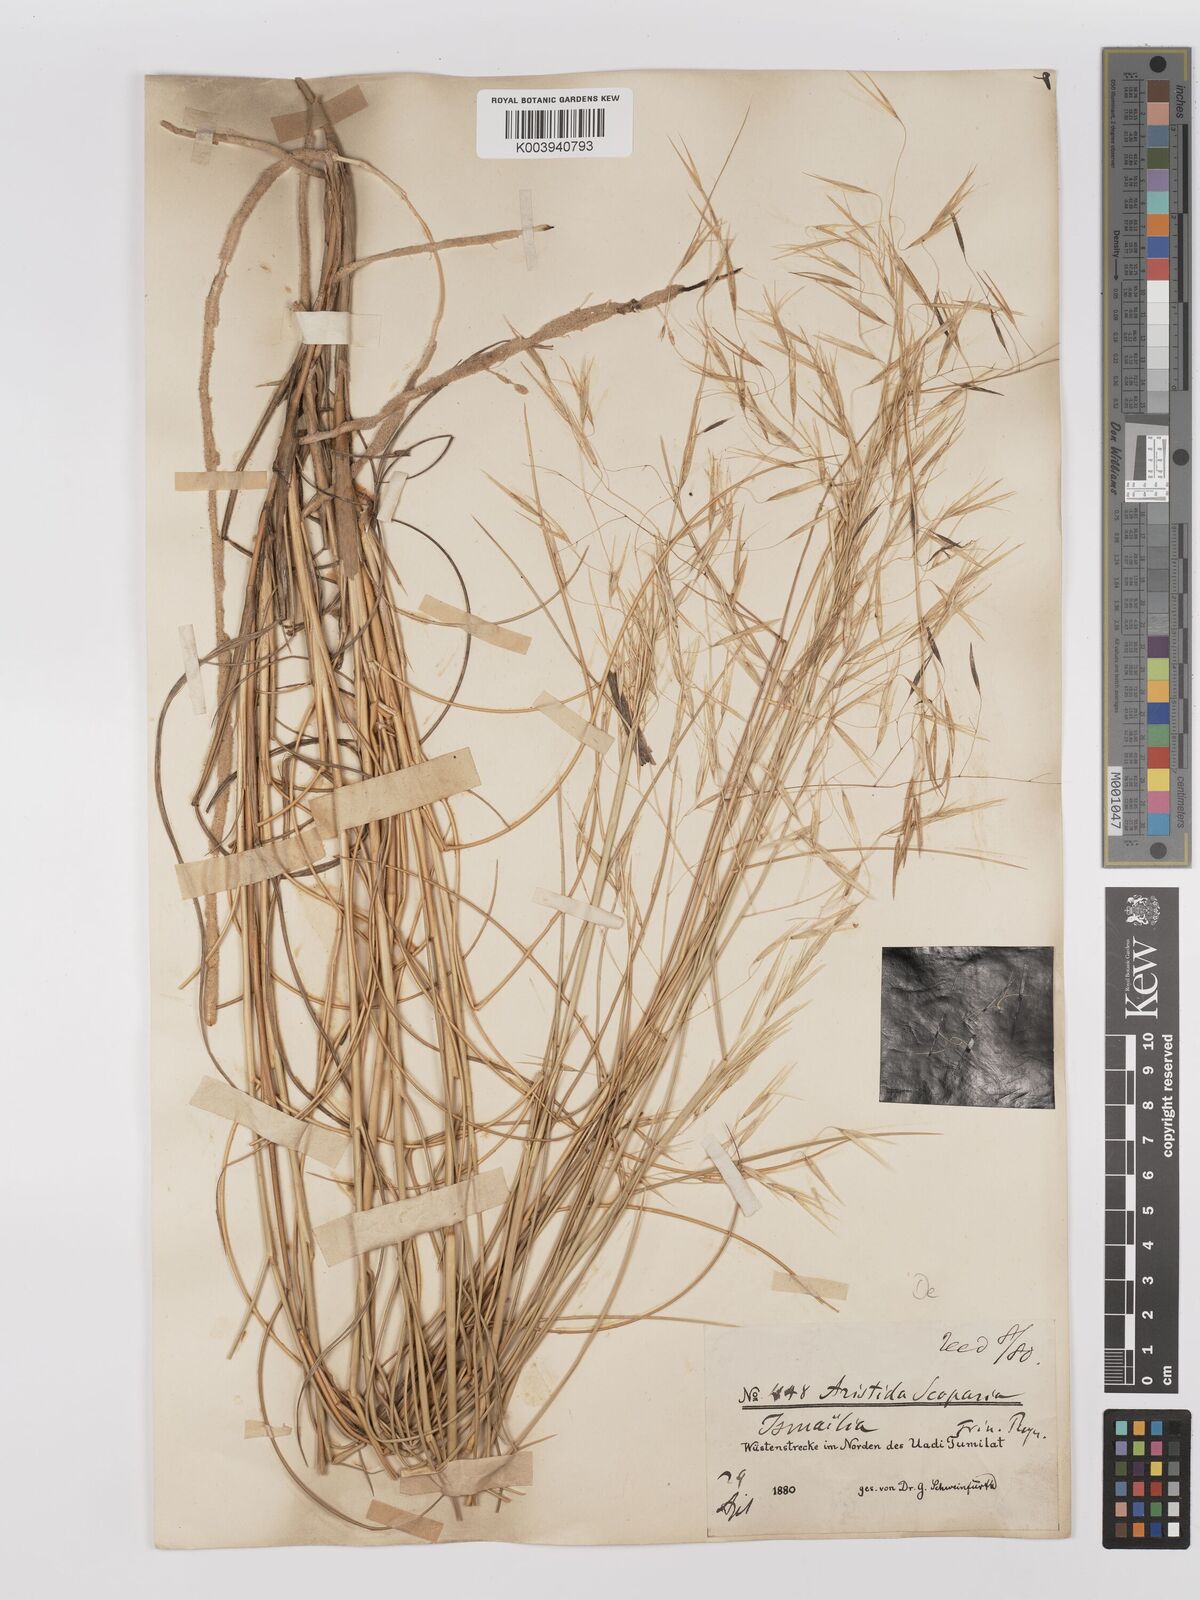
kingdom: Plantae
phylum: Tracheophyta
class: Liliopsida
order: Poales
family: Poaceae
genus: Stipagrostis
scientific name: Stipagrostis scoparia
